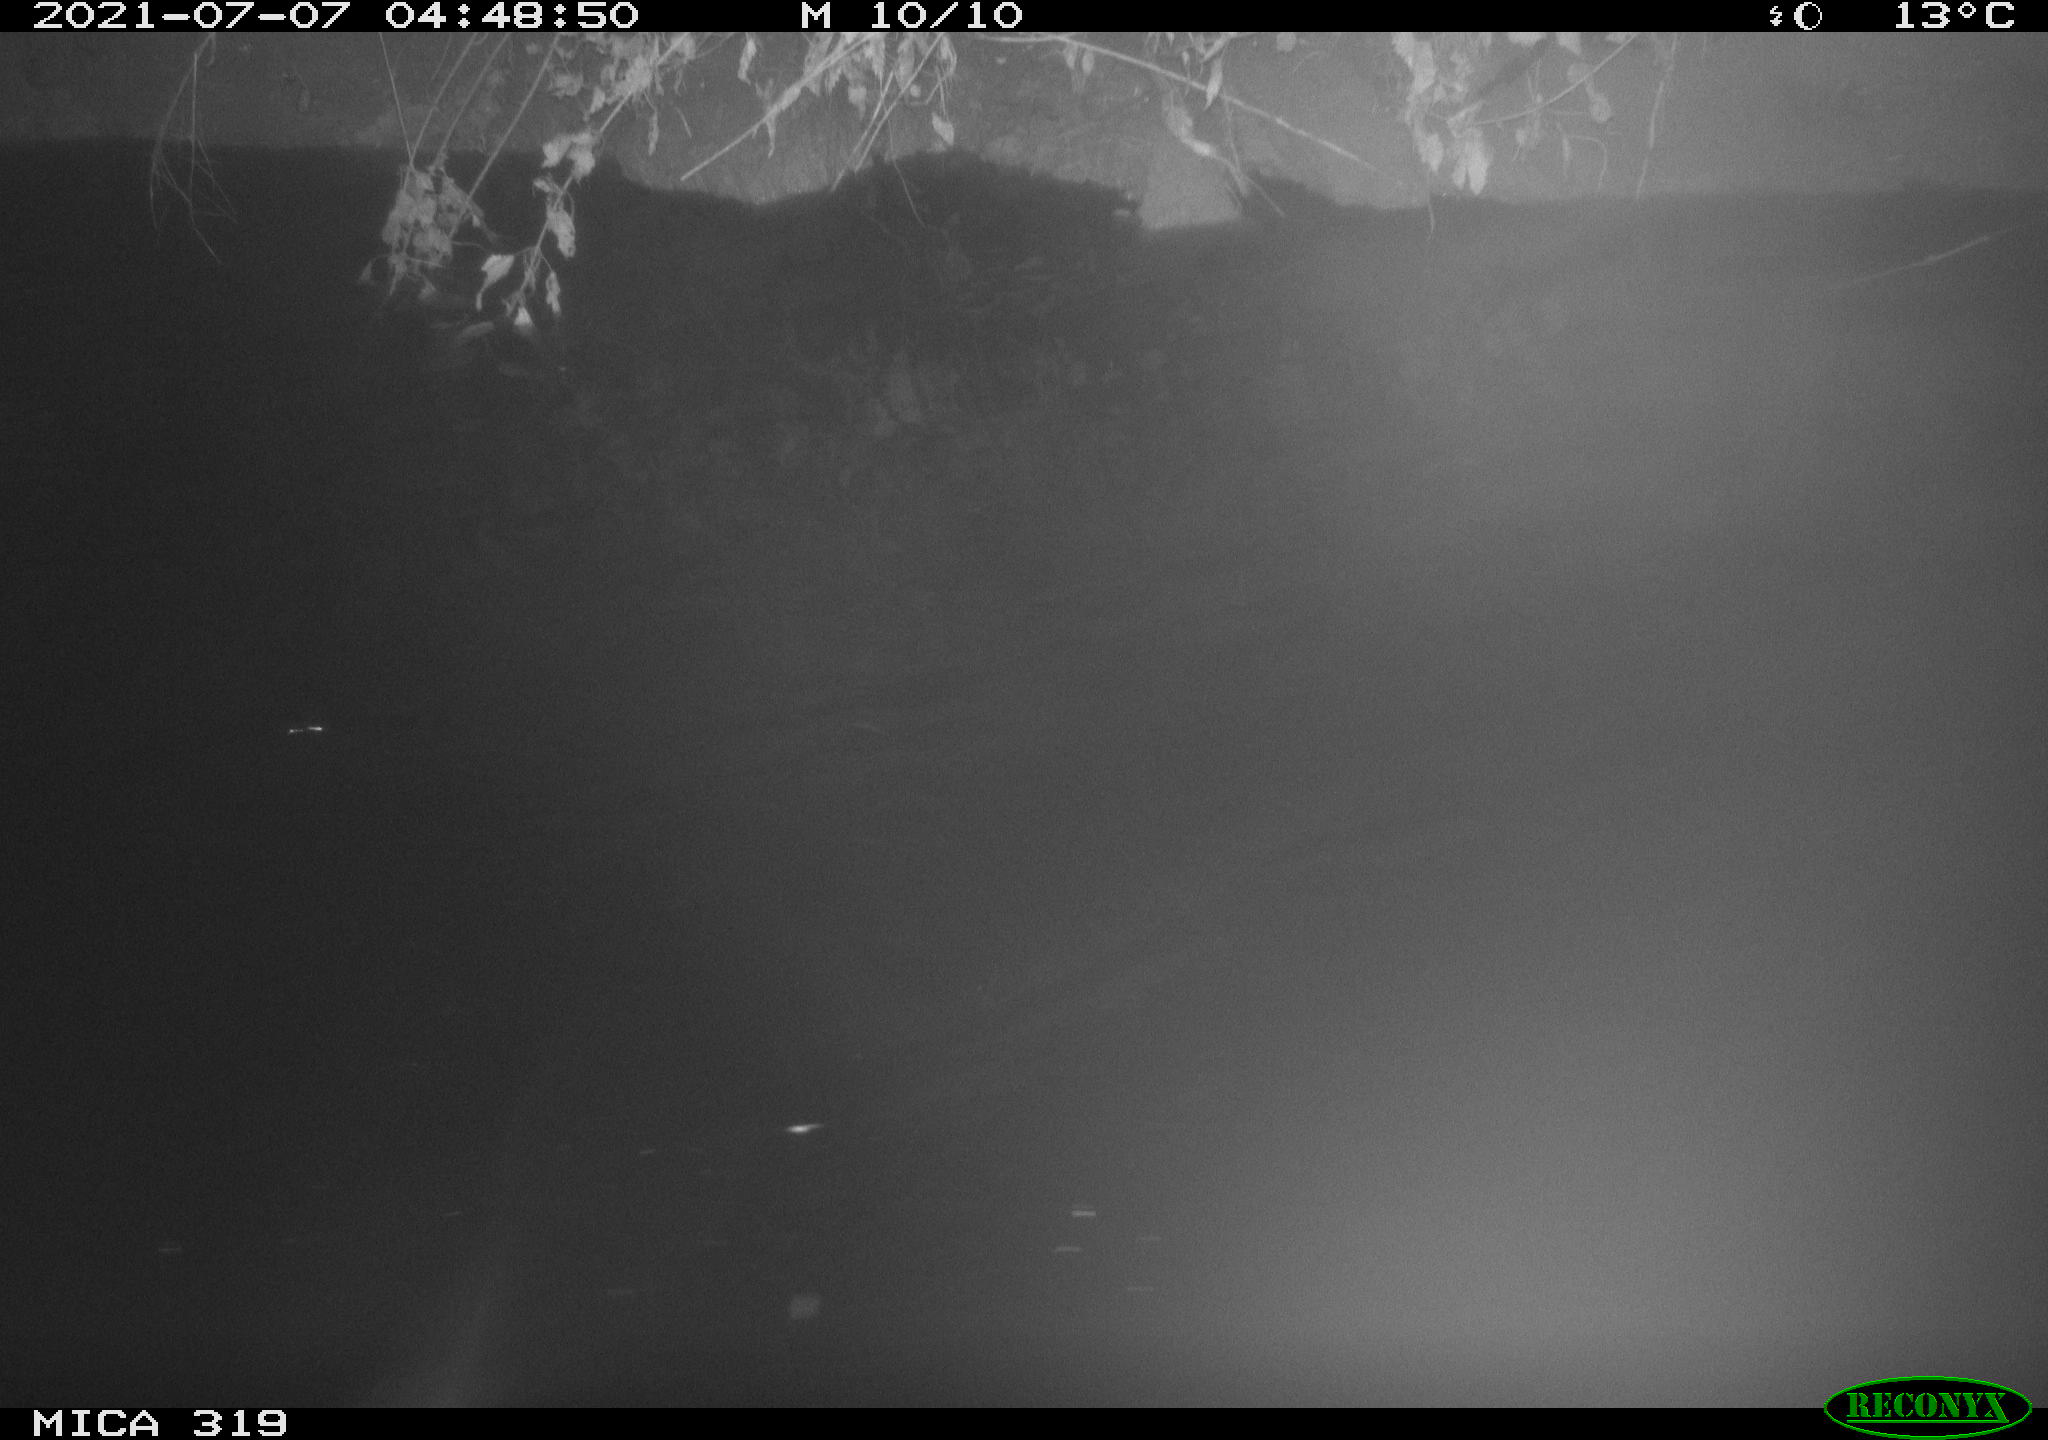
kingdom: Animalia
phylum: Chordata
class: Aves
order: Anseriformes
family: Anatidae
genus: Anas
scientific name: Anas platyrhynchos
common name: Mallard
